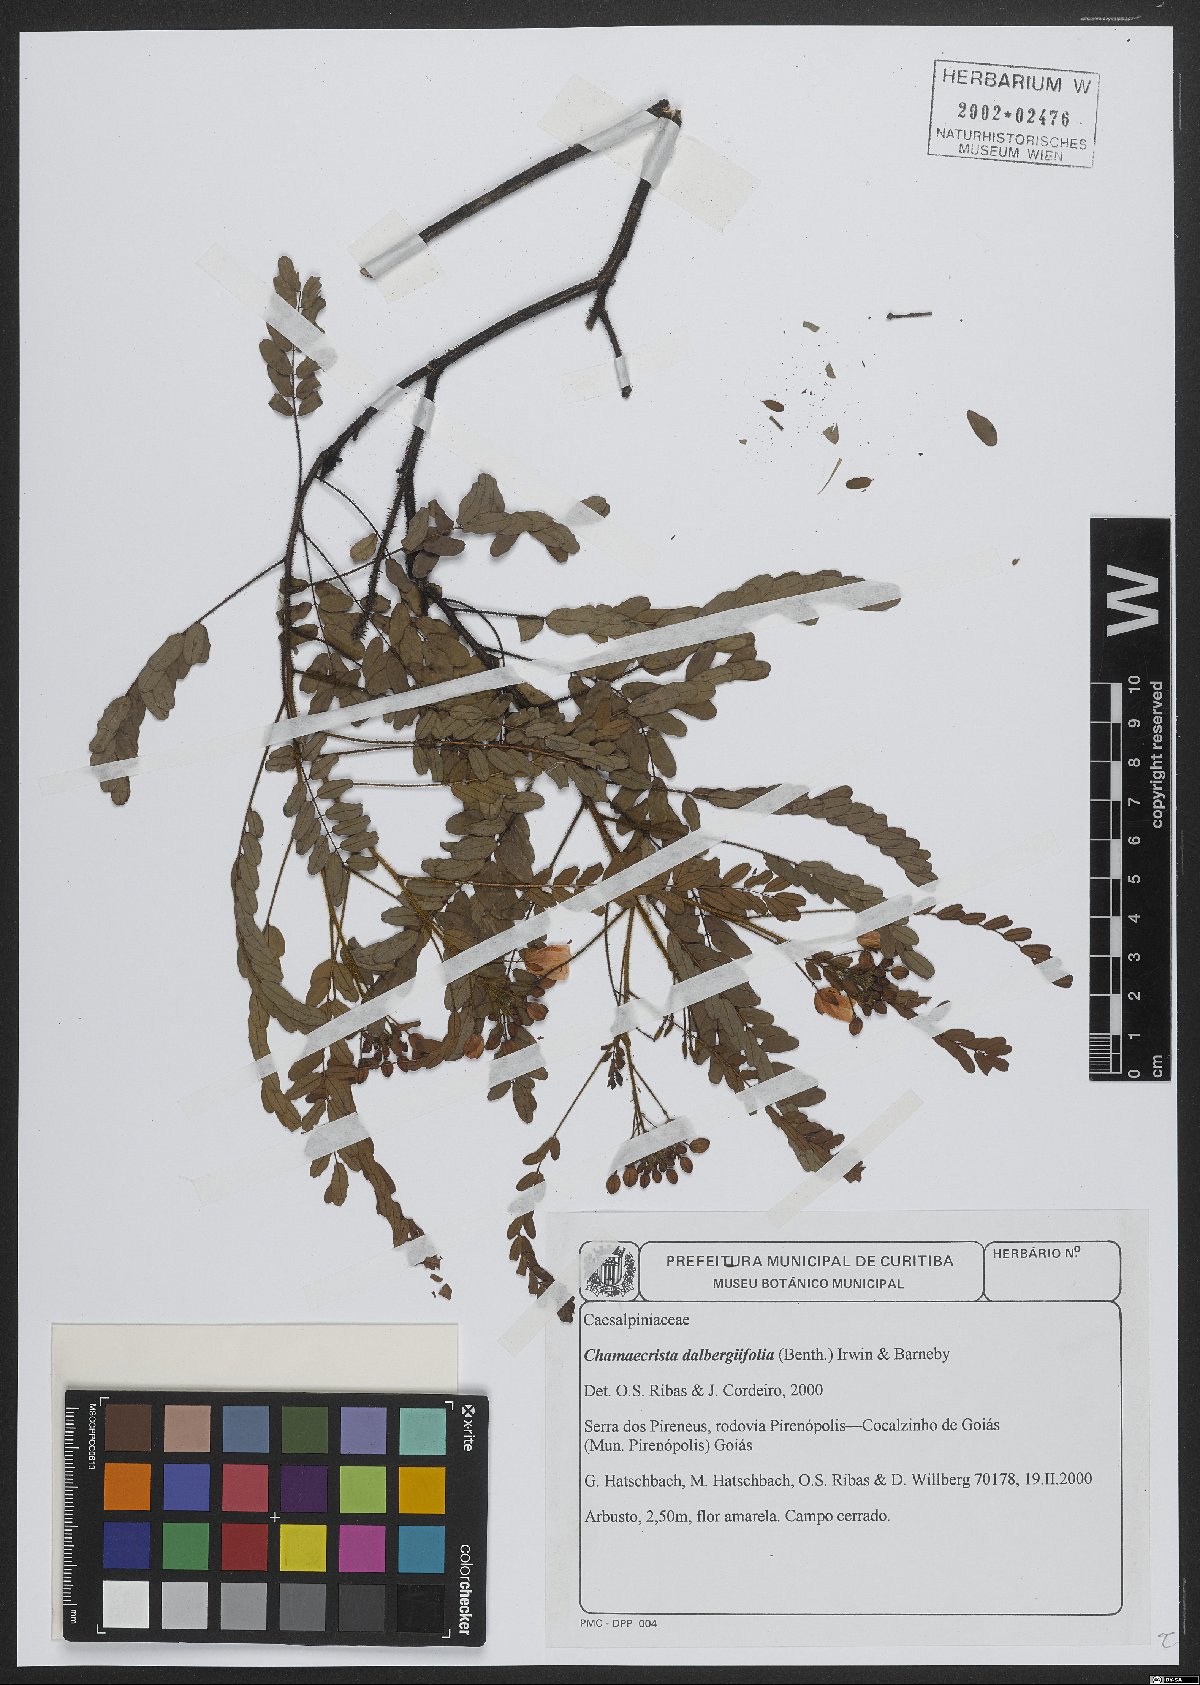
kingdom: Plantae
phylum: Tracheophyta
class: Magnoliopsida
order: Fabales
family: Fabaceae
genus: Chamaecrista
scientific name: Chamaecrista dalbergiifolia
